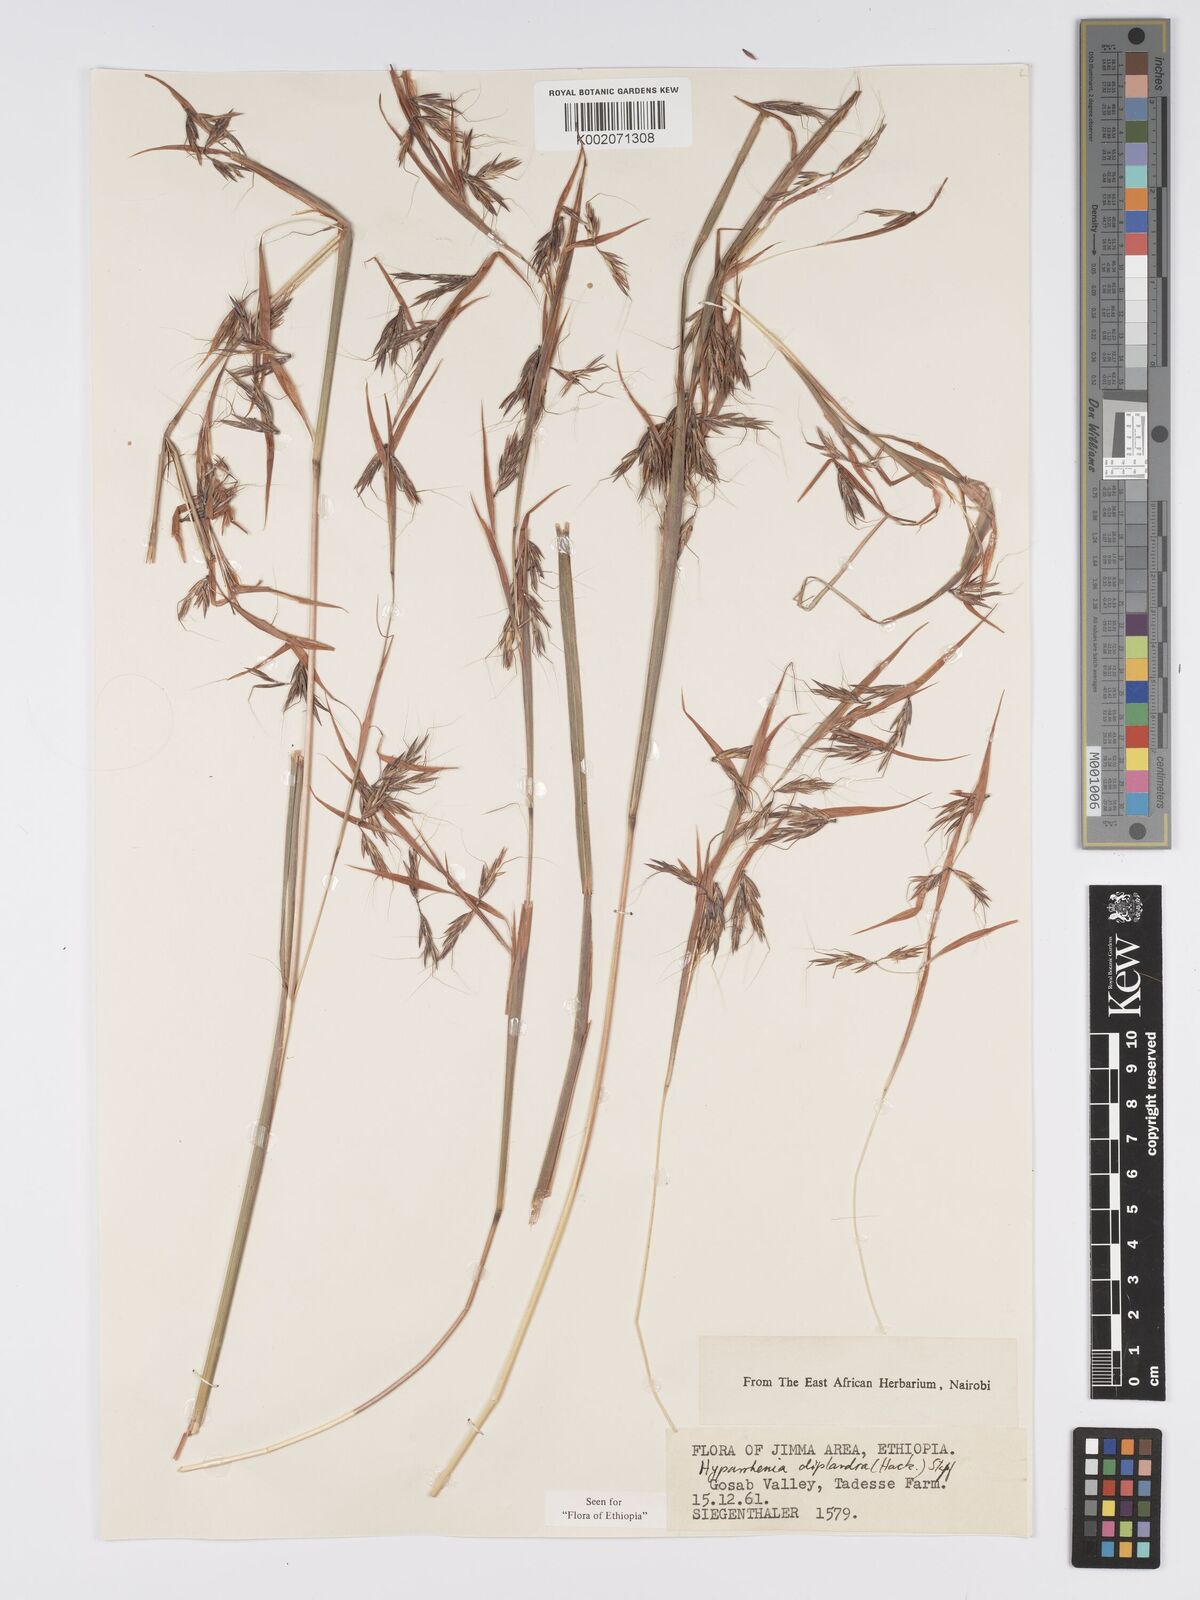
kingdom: Plantae
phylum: Tracheophyta
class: Liliopsida
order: Poales
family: Poaceae
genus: Hyparrhenia
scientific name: Hyparrhenia diplandra
